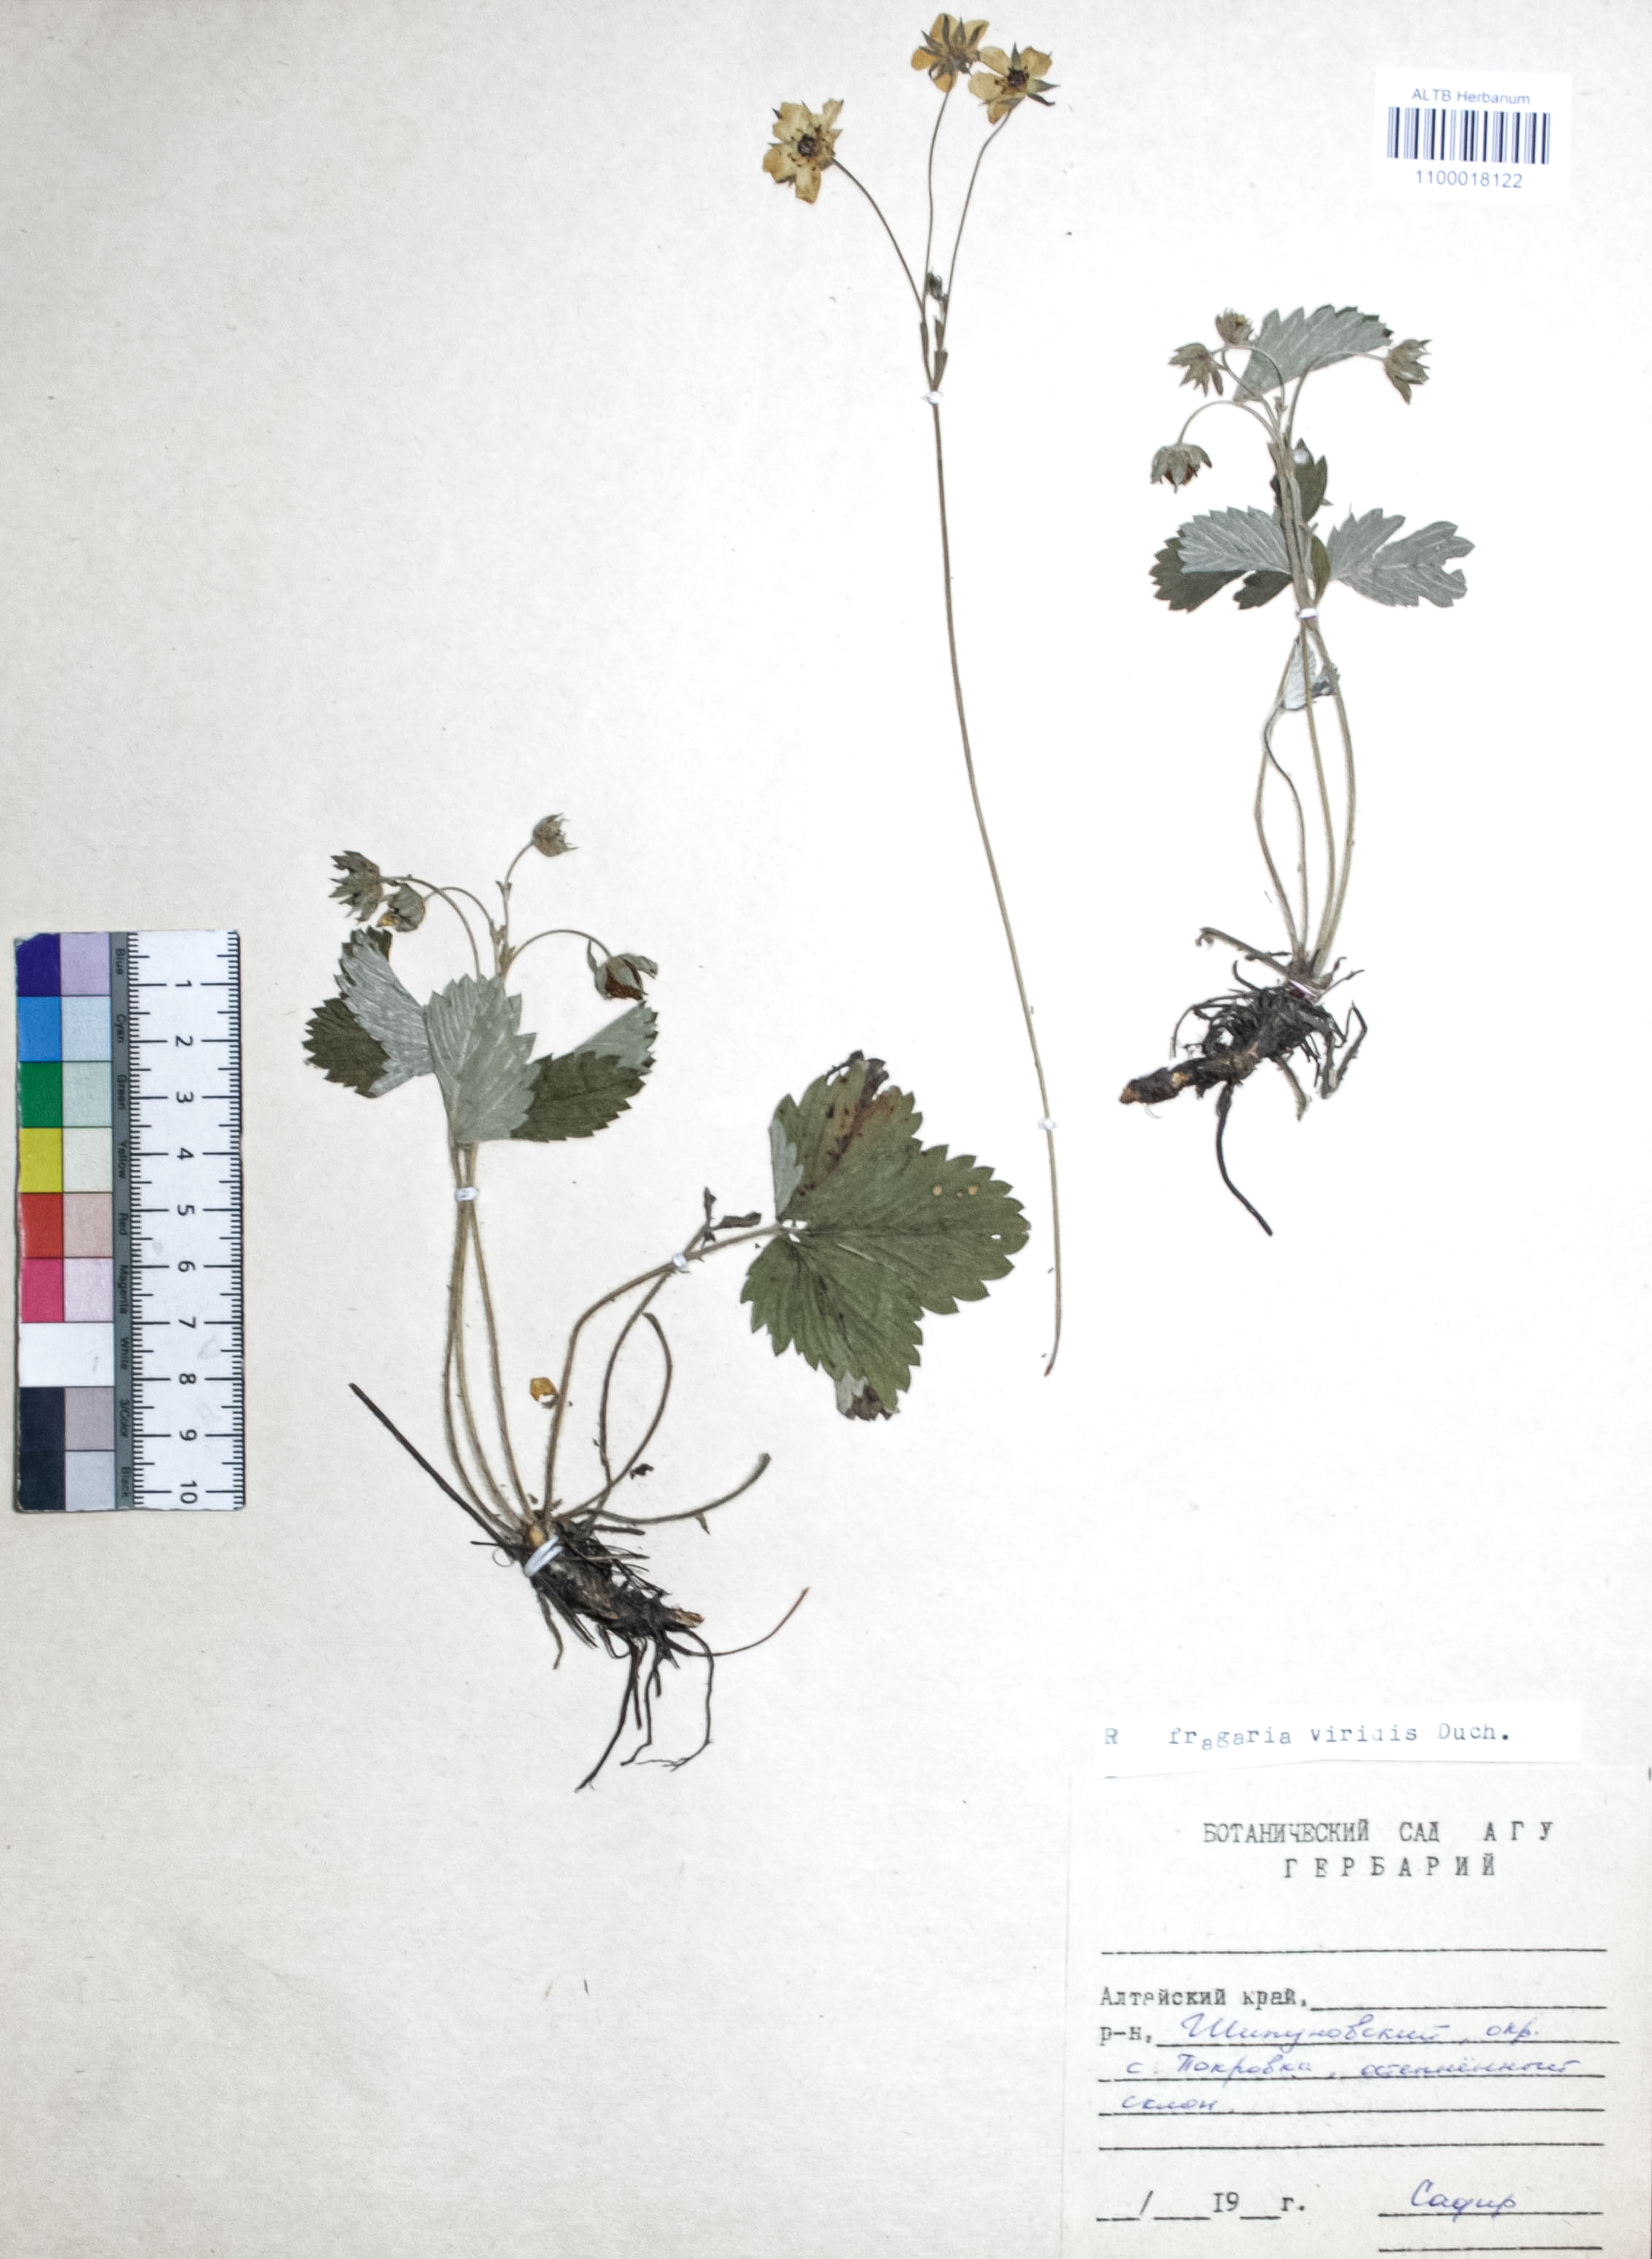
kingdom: Plantae
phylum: Tracheophyta
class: Magnoliopsida
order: Rosales
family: Rosaceae
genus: Fragaria
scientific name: Fragaria viridis
